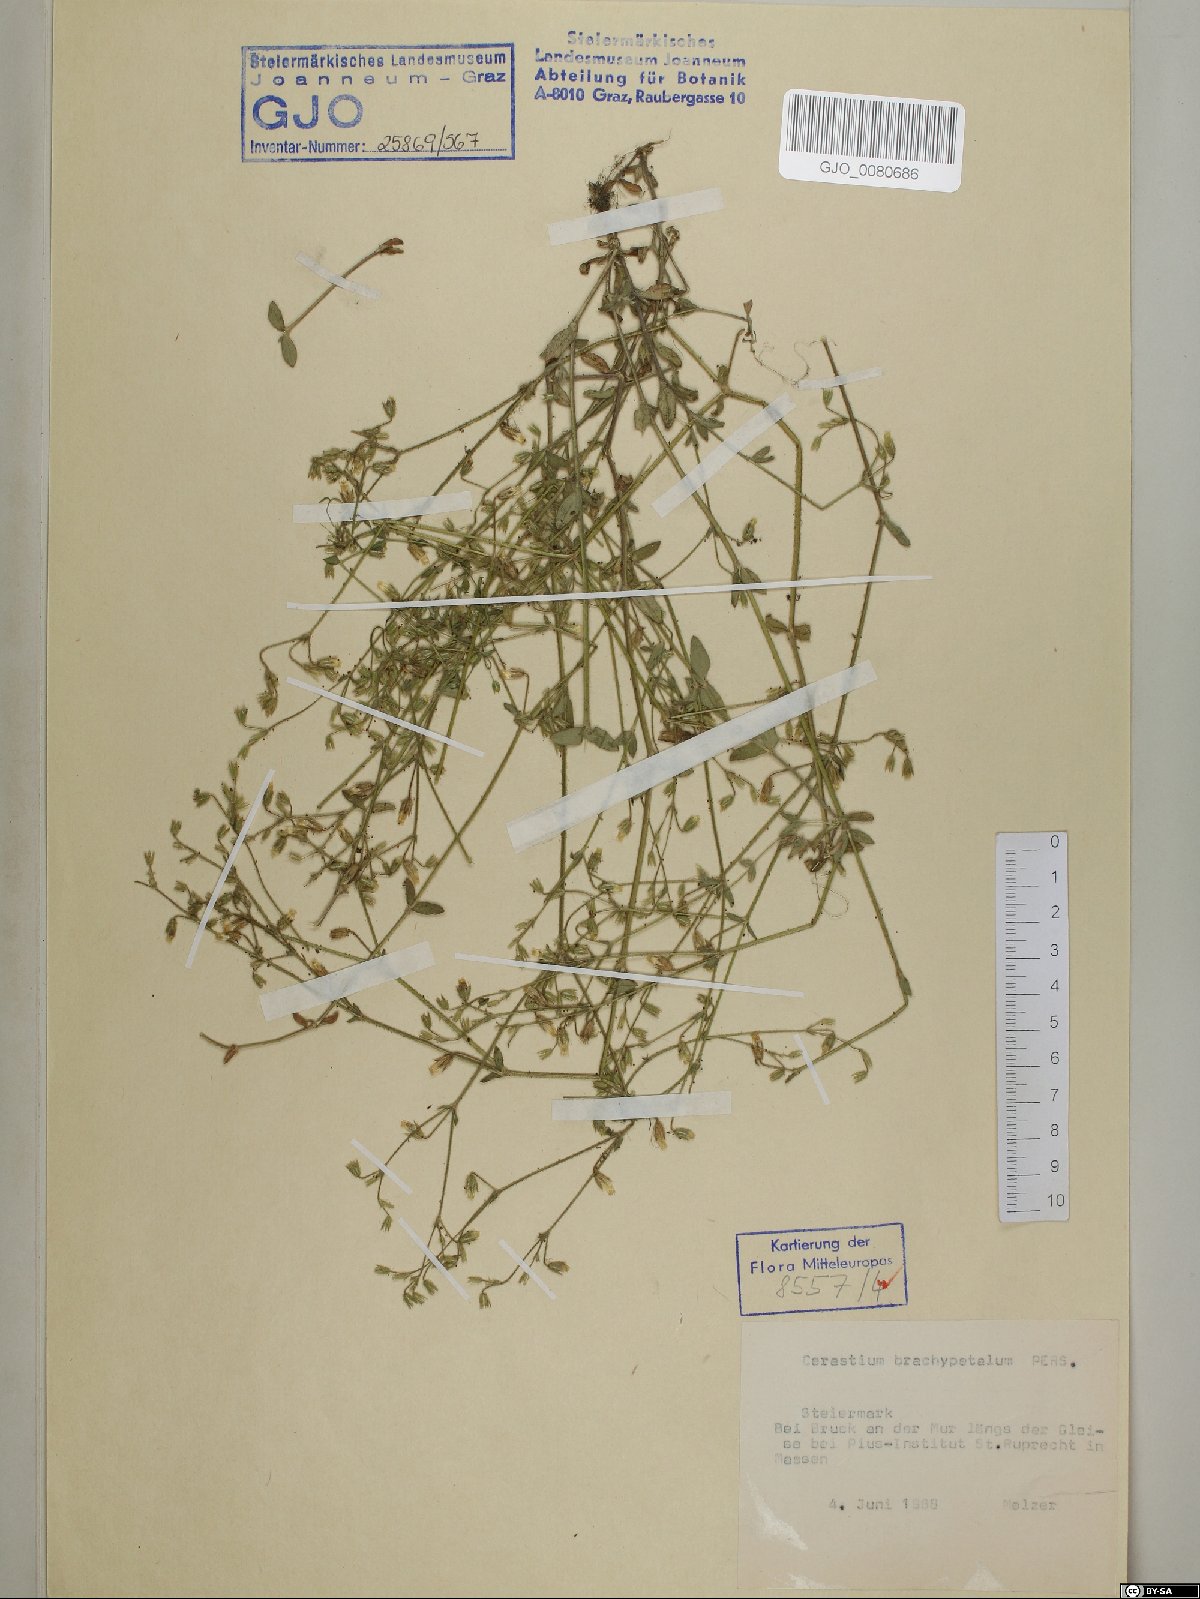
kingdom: Plantae
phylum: Tracheophyta
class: Magnoliopsida
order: Caryophyllales
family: Caryophyllaceae
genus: Cerastium
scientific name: Cerastium brachypetalum
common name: Grey mouse-ear
